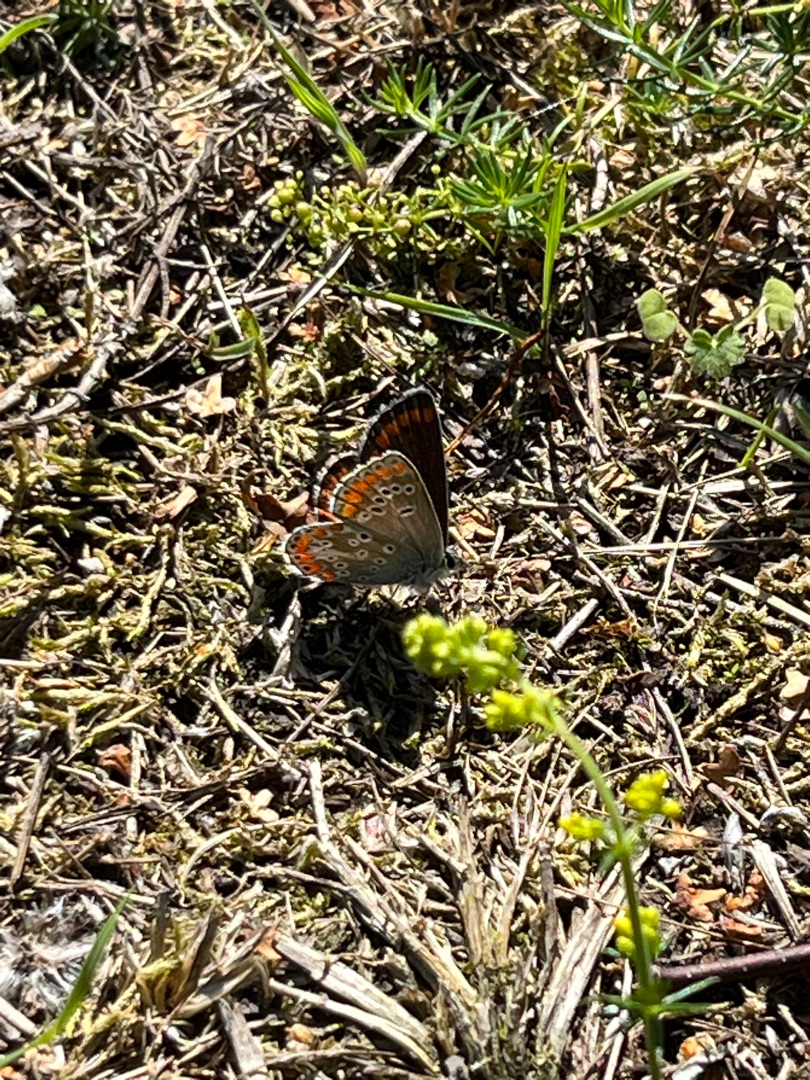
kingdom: Animalia
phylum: Arthropoda
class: Insecta
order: Lepidoptera
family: Lycaenidae
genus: Aricia
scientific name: Aricia agestis
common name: Rødplettet blåfugl
